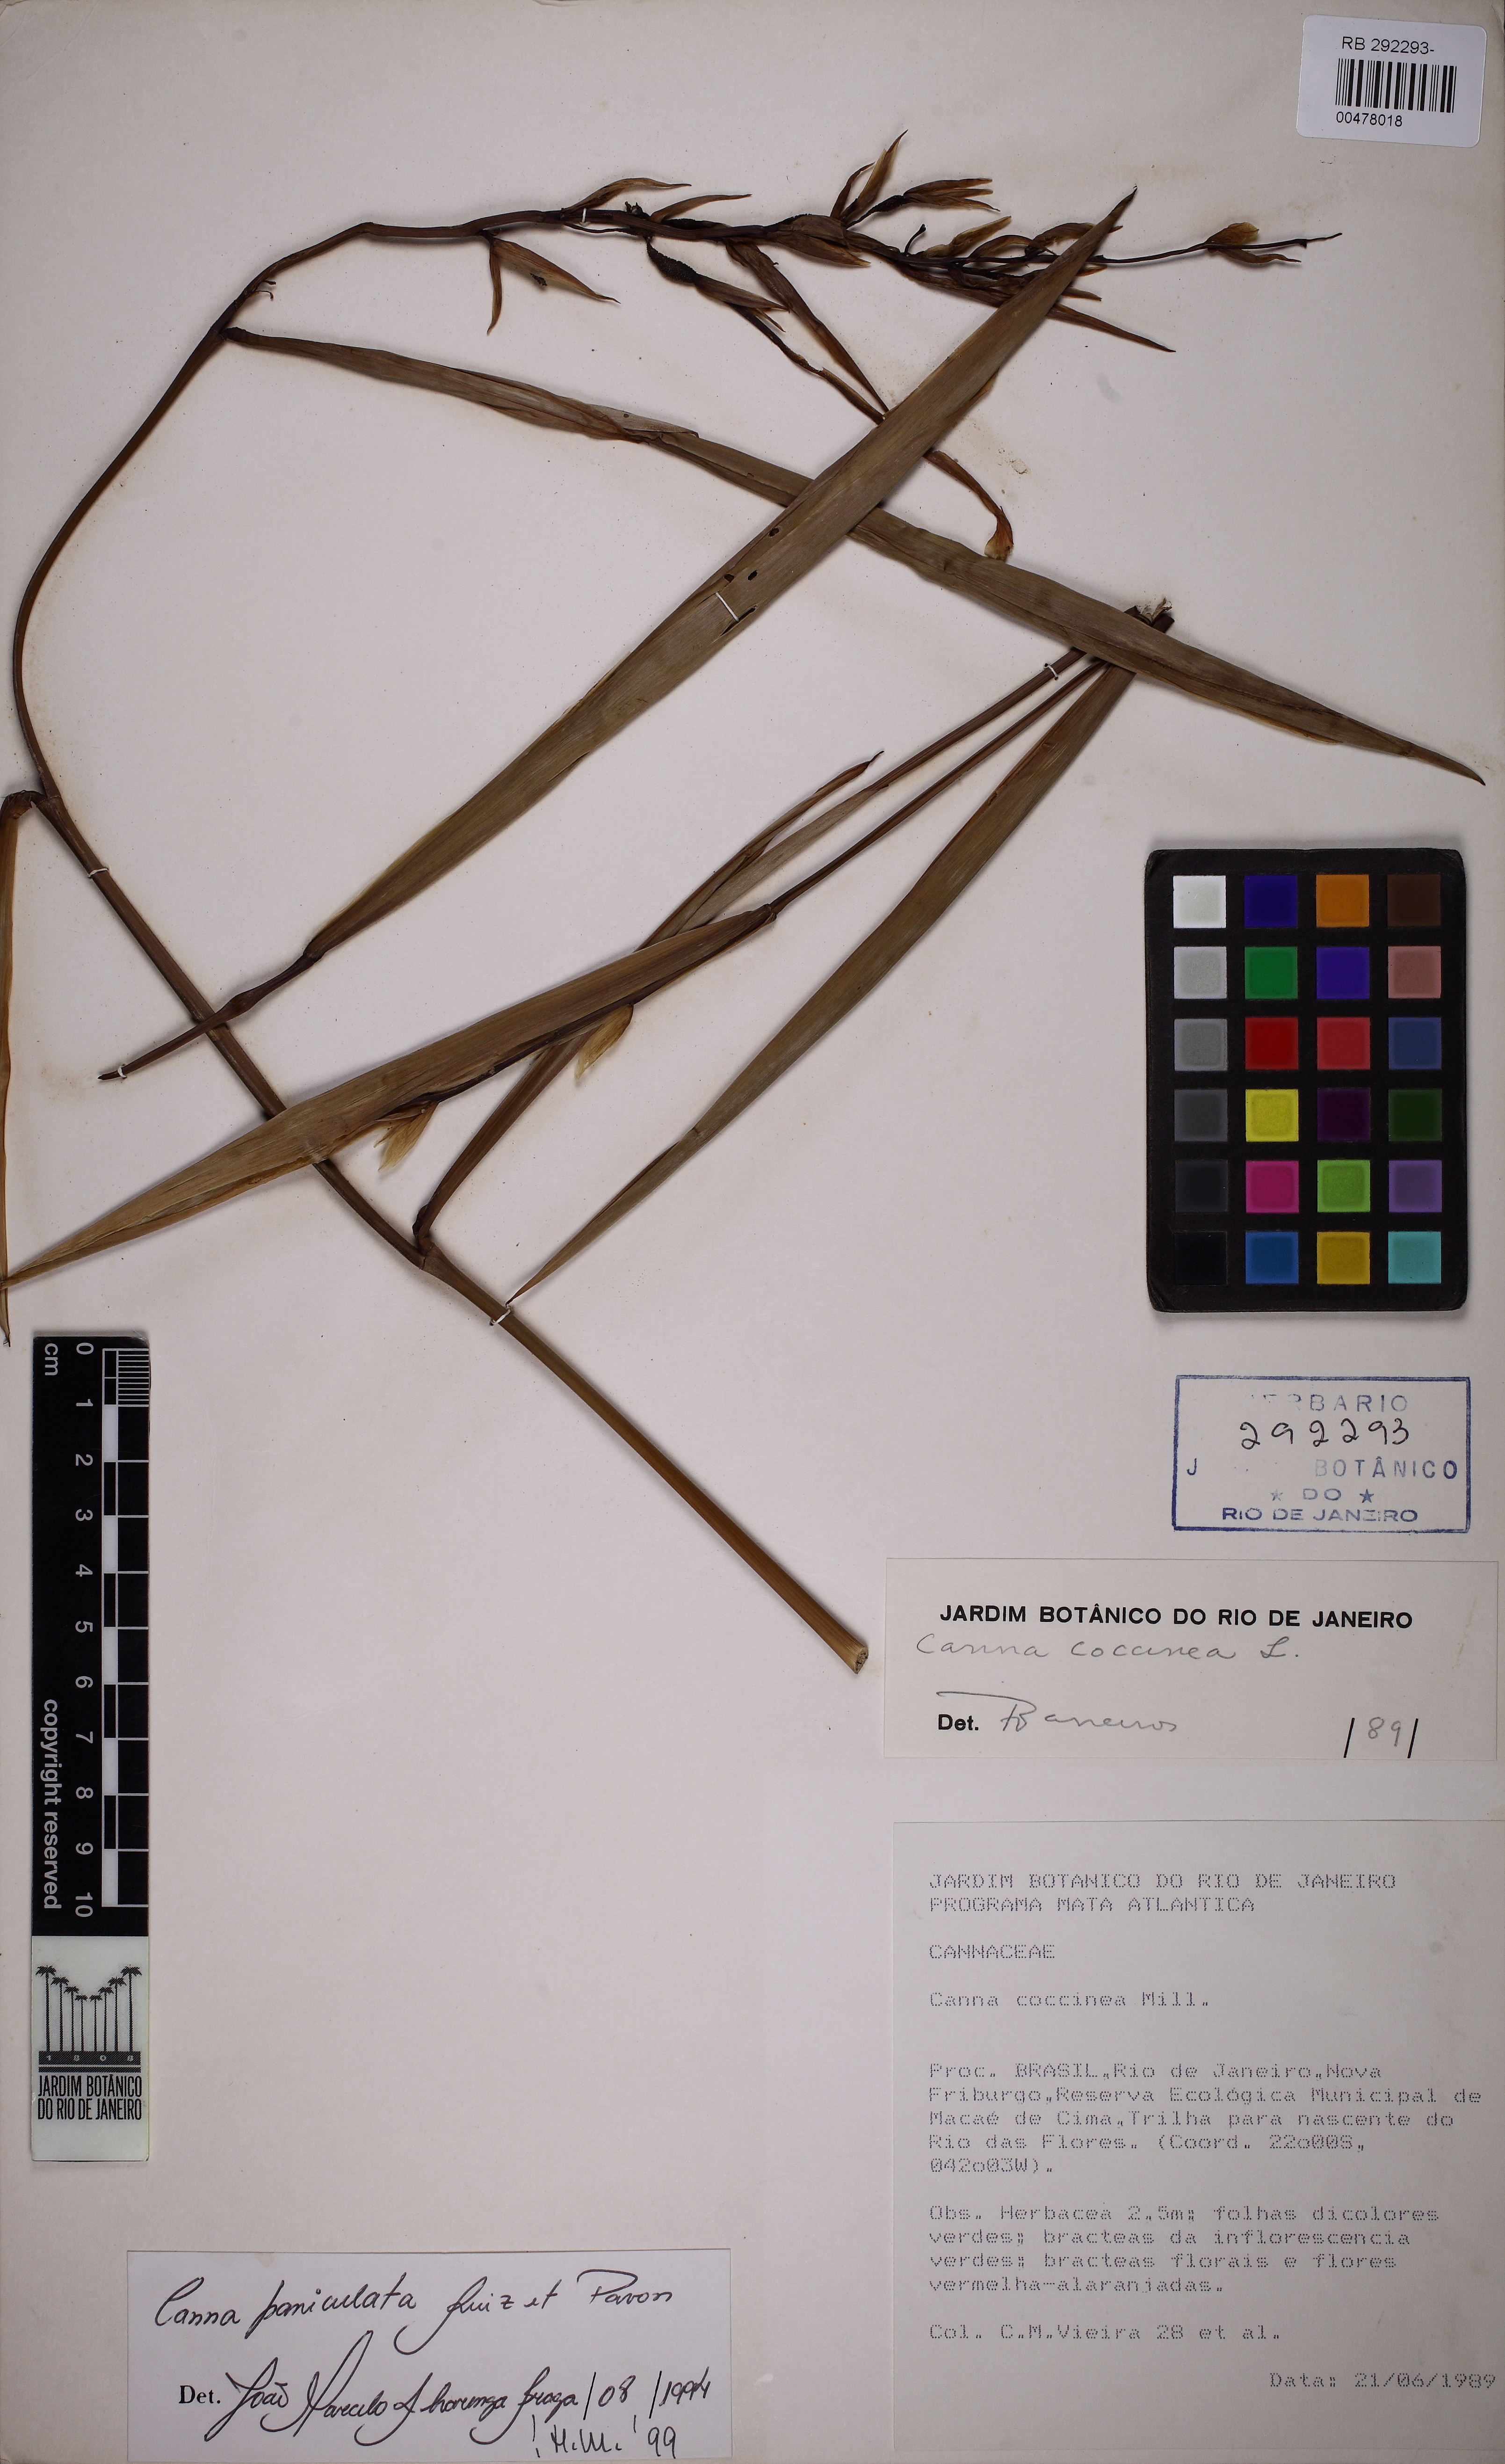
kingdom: Plantae
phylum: Tracheophyta
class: Liliopsida
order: Zingiberales
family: Cannaceae
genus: Canna
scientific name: Canna paniculata
